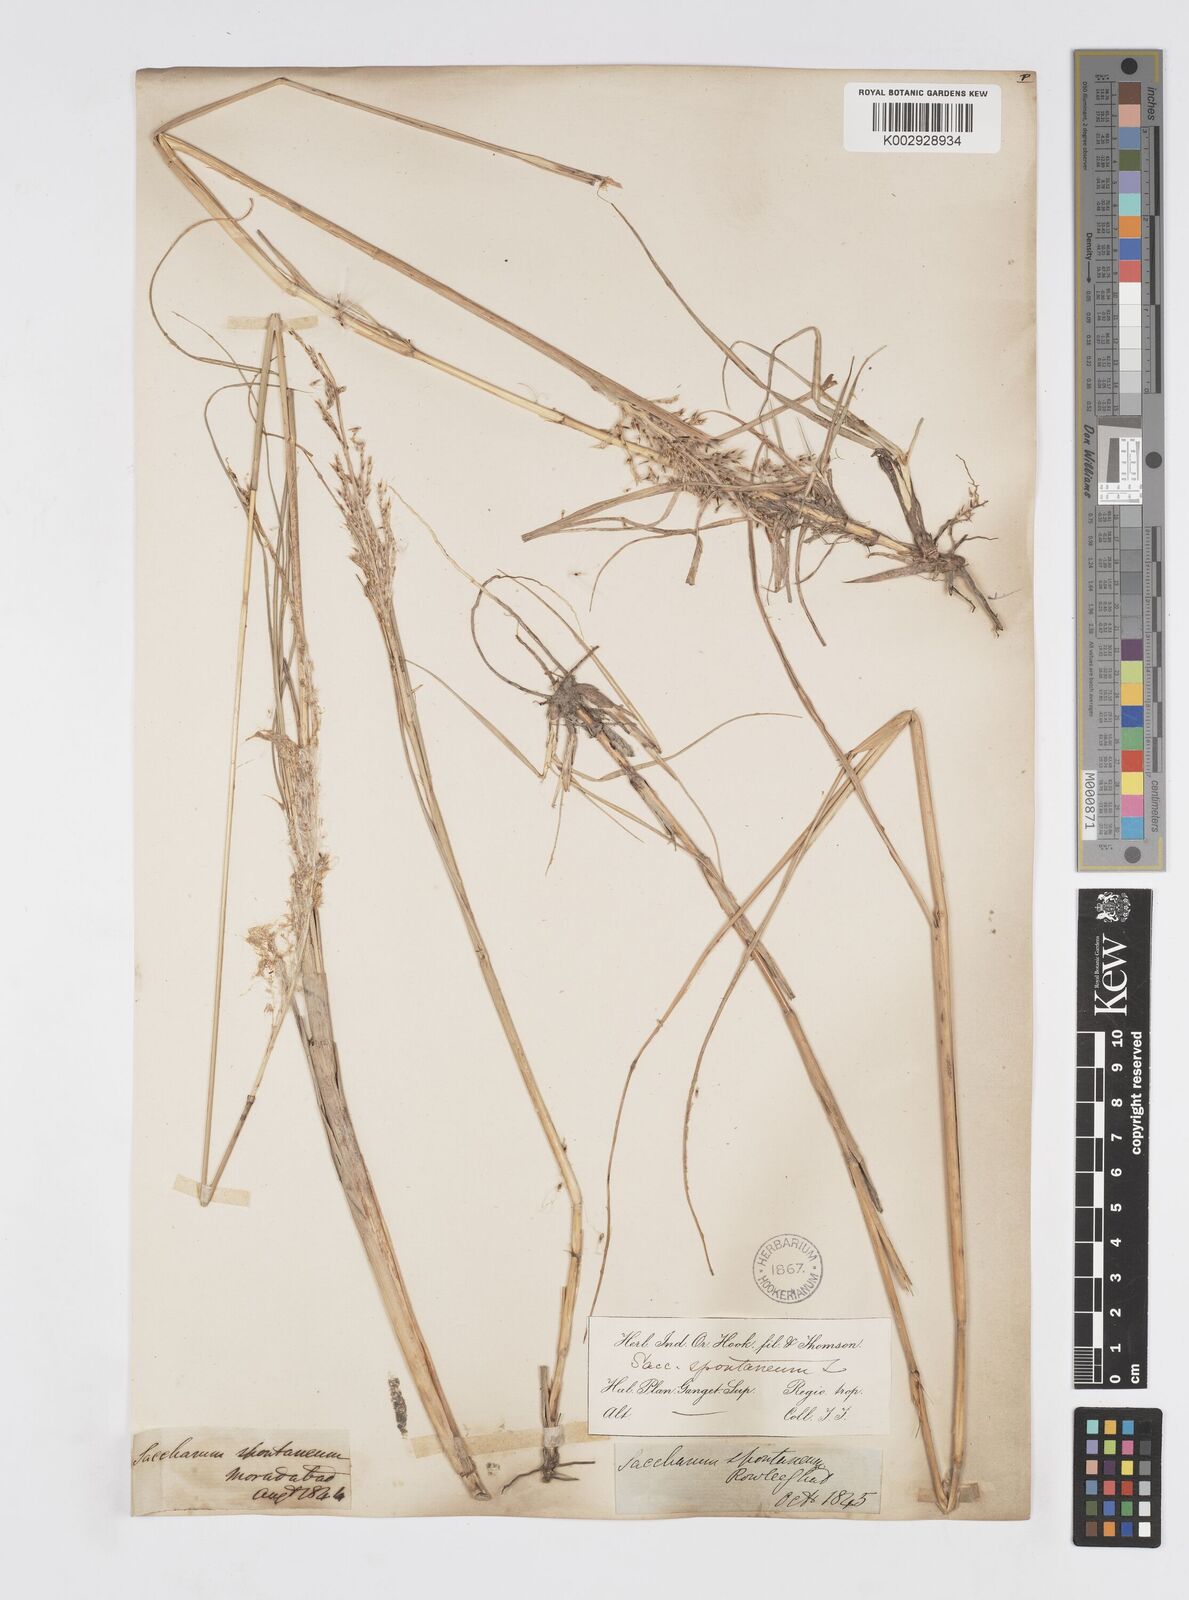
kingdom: Plantae
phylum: Tracheophyta
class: Liliopsida
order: Poales
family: Poaceae
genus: Saccharum
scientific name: Saccharum spontaneum
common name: Wild sugarcane
